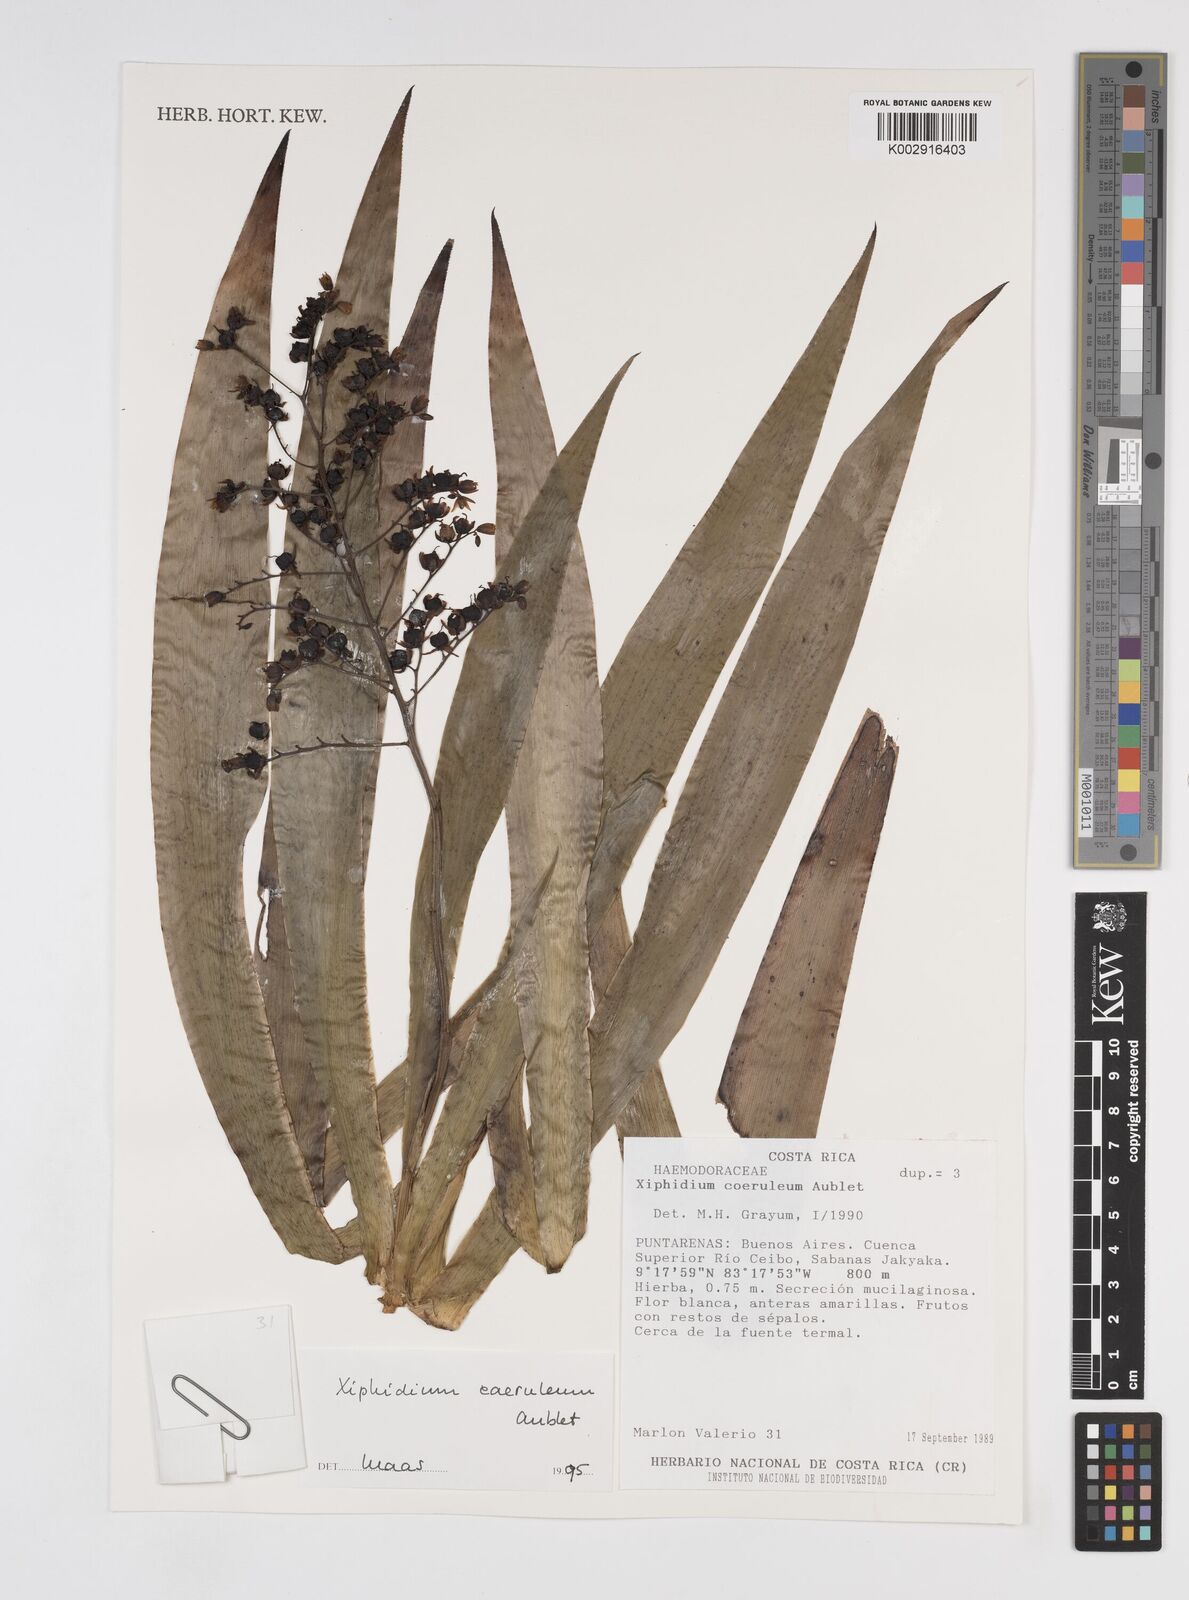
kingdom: Plantae
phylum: Tracheophyta
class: Liliopsida
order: Commelinales
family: Haemodoraceae
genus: Xiphidium
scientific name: Xiphidium caeruleum
